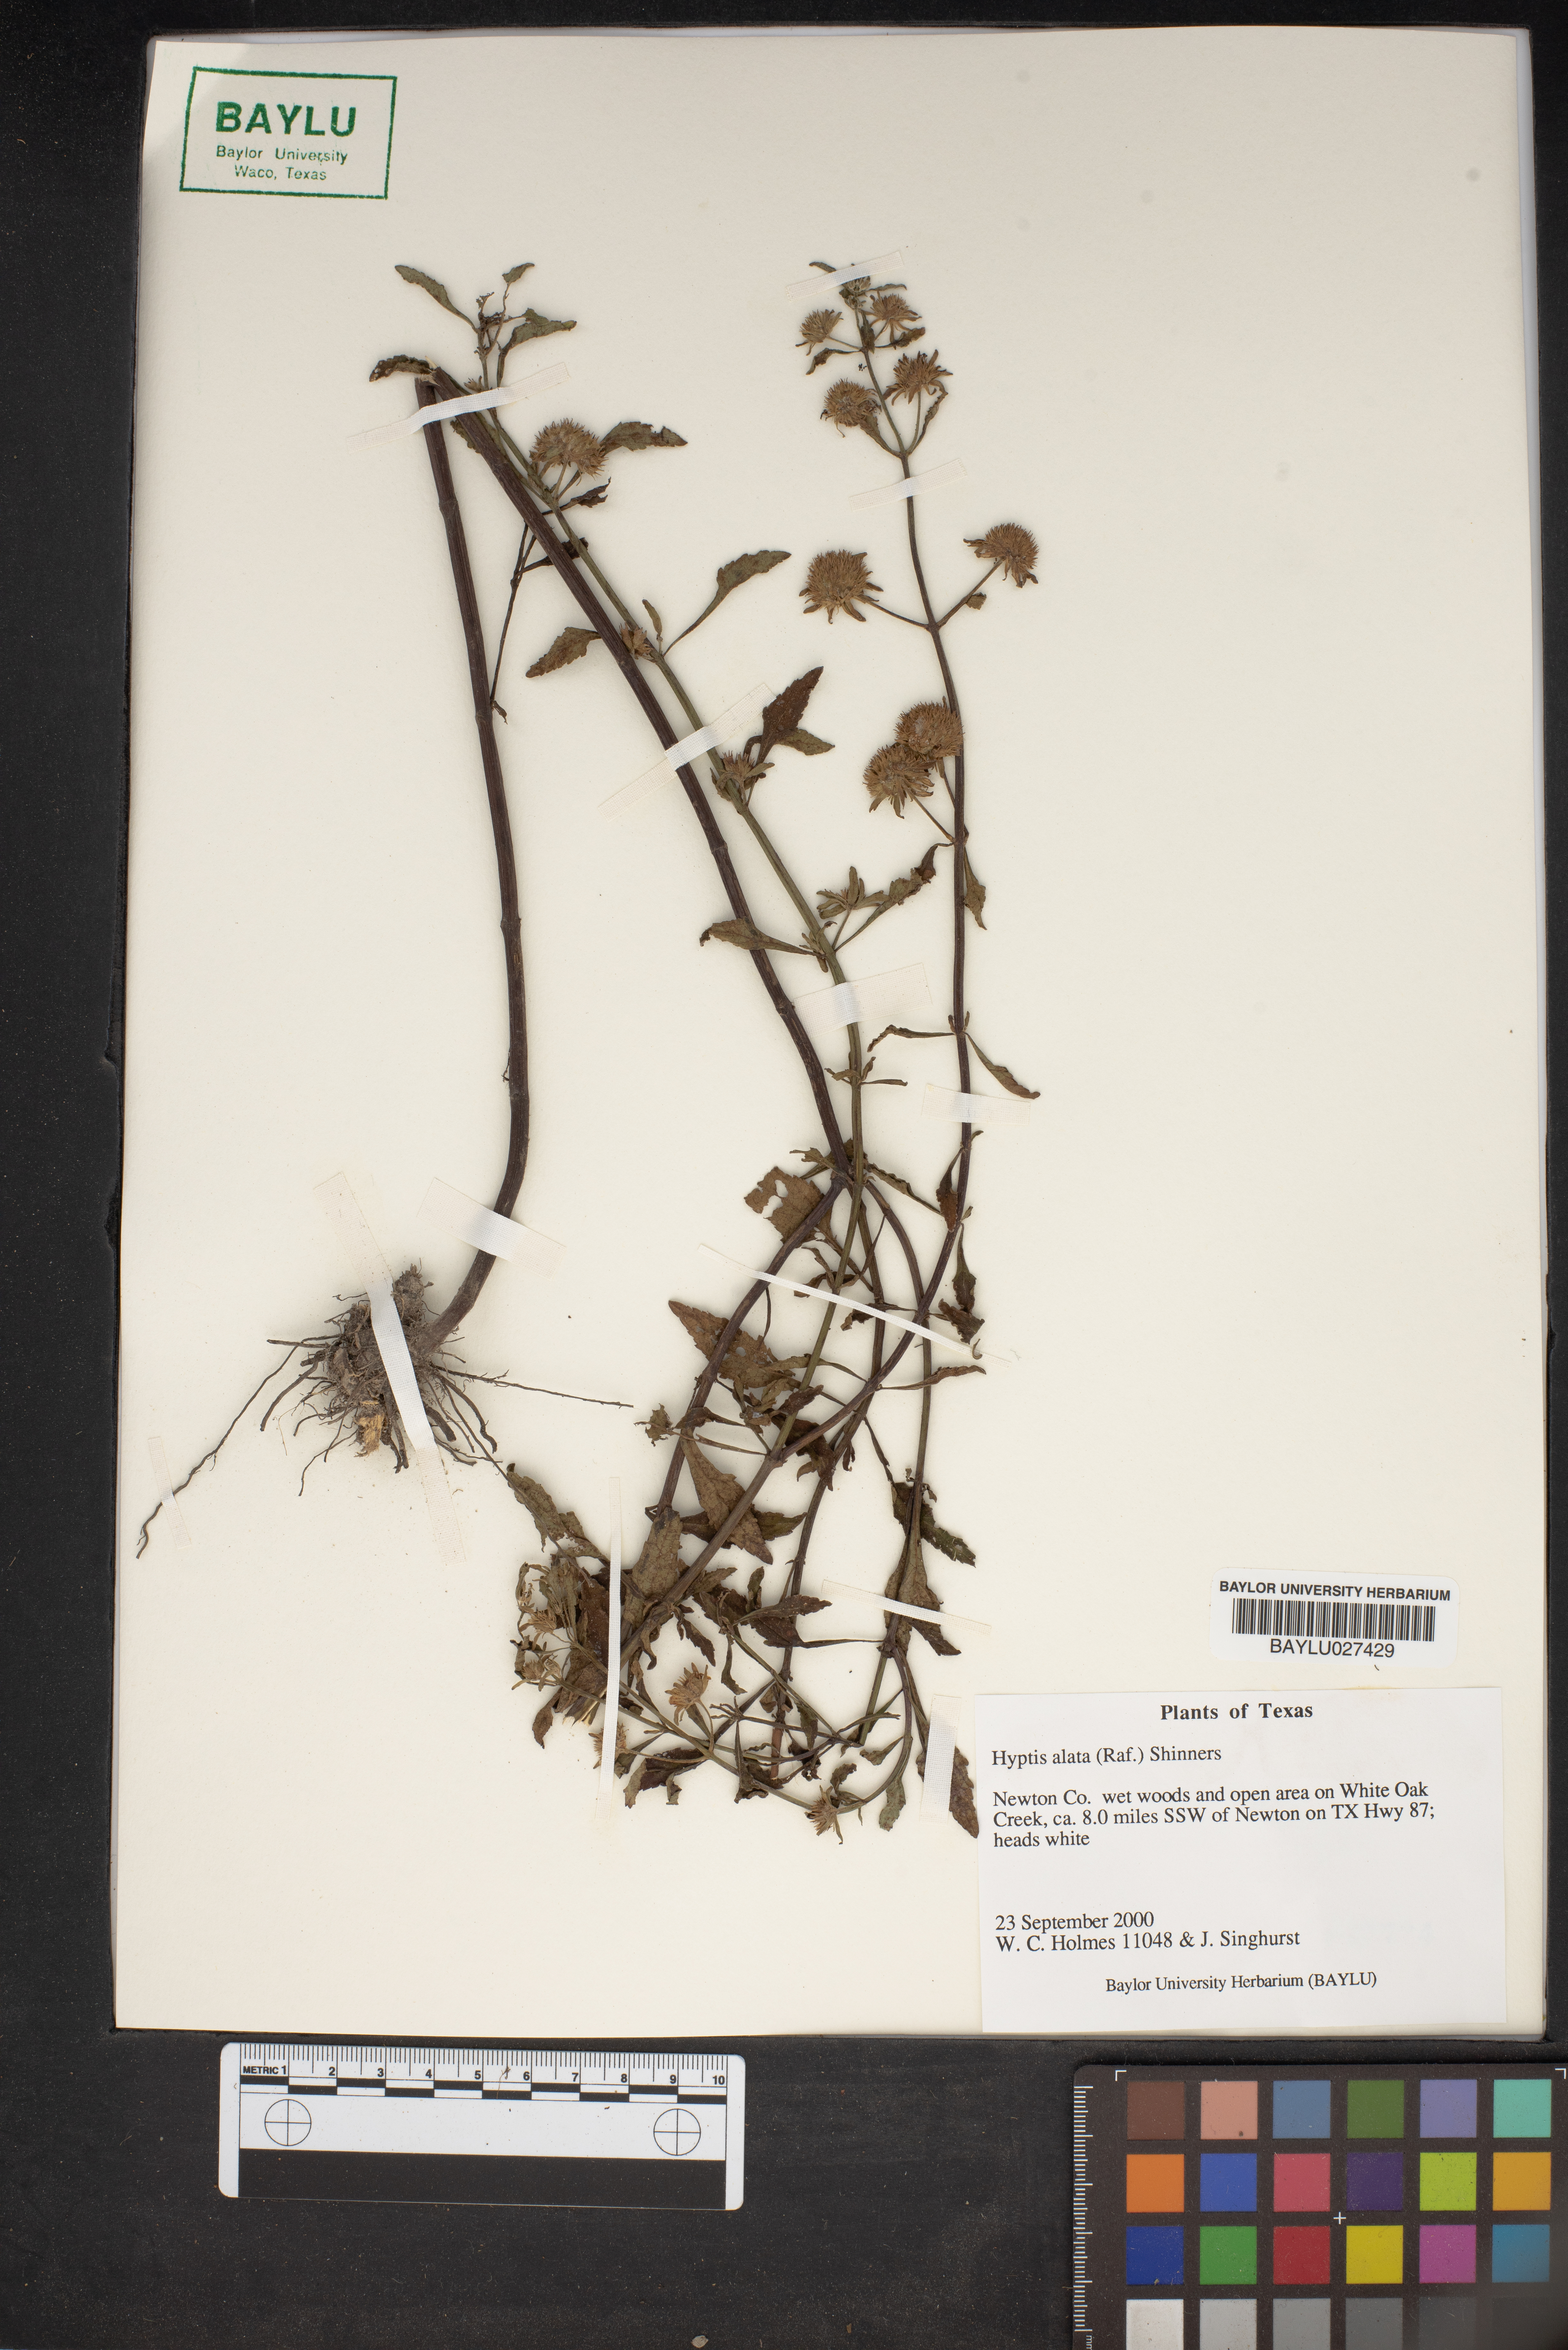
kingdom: Plantae
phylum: Tracheophyta
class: Magnoliopsida
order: Lamiales
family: Lamiaceae
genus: Hyptis
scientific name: Hyptis alata
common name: Cluster bush-mint
